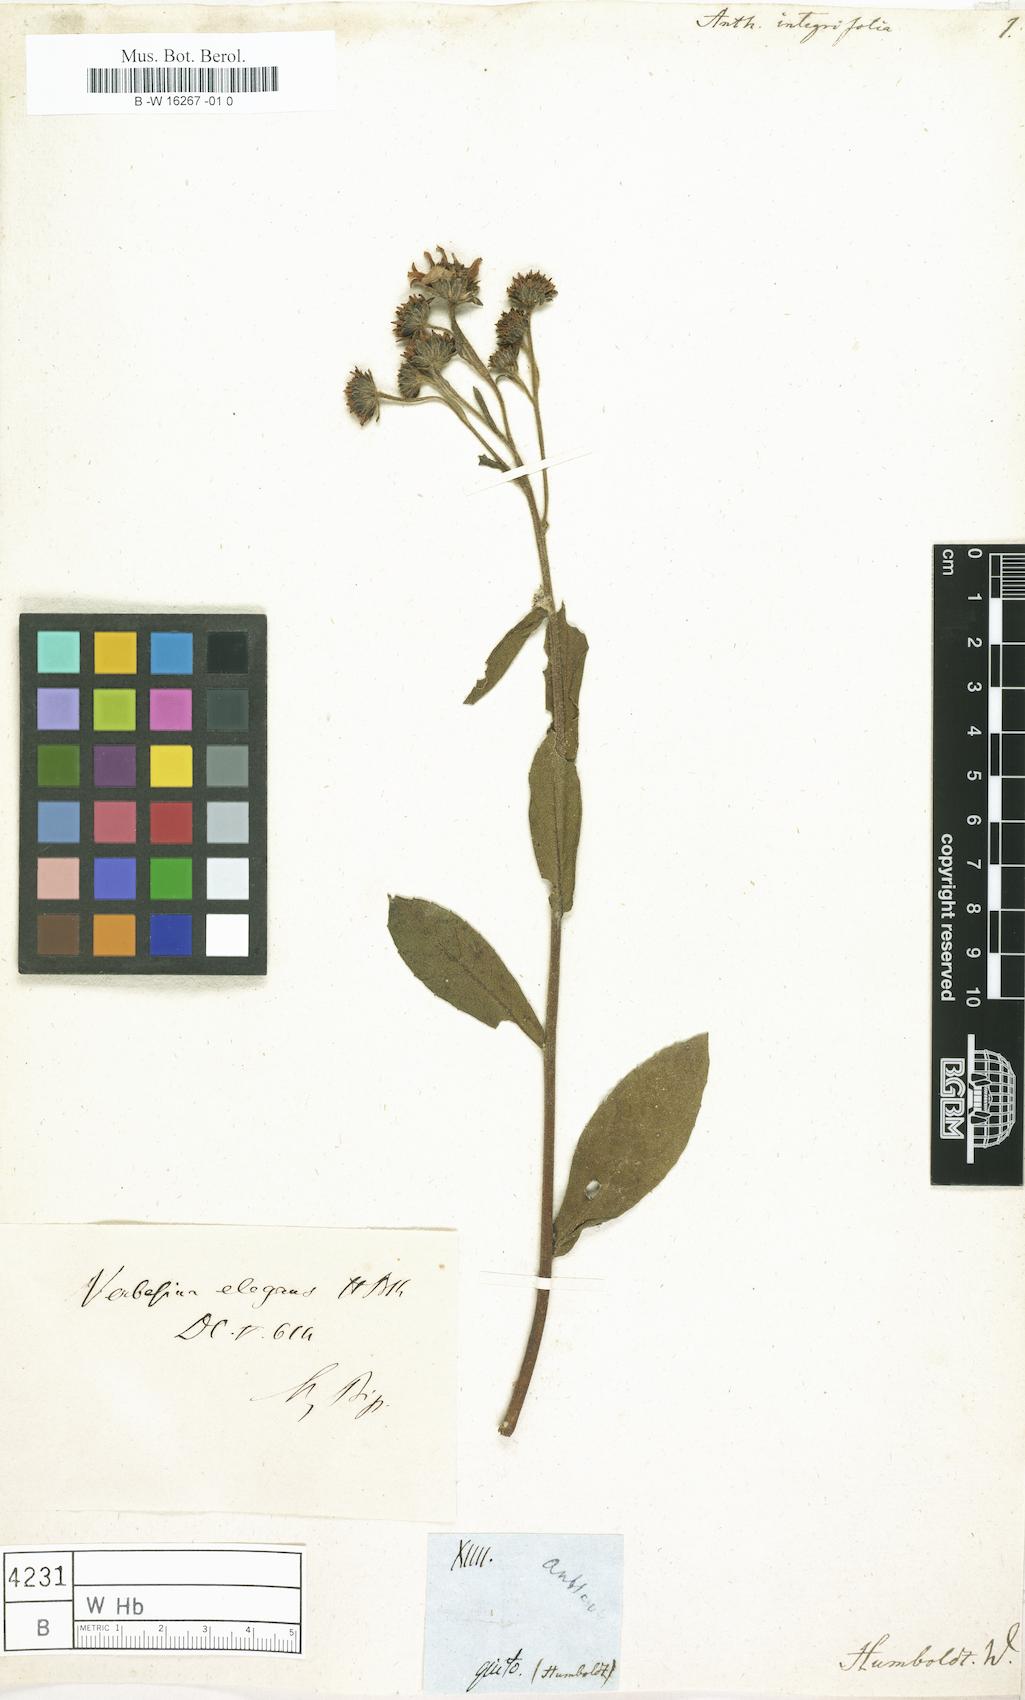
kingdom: Plantae
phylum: Tracheophyta
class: Magnoliopsida
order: Asterales
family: Asteraceae
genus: Anthemis
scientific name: Anthemis
